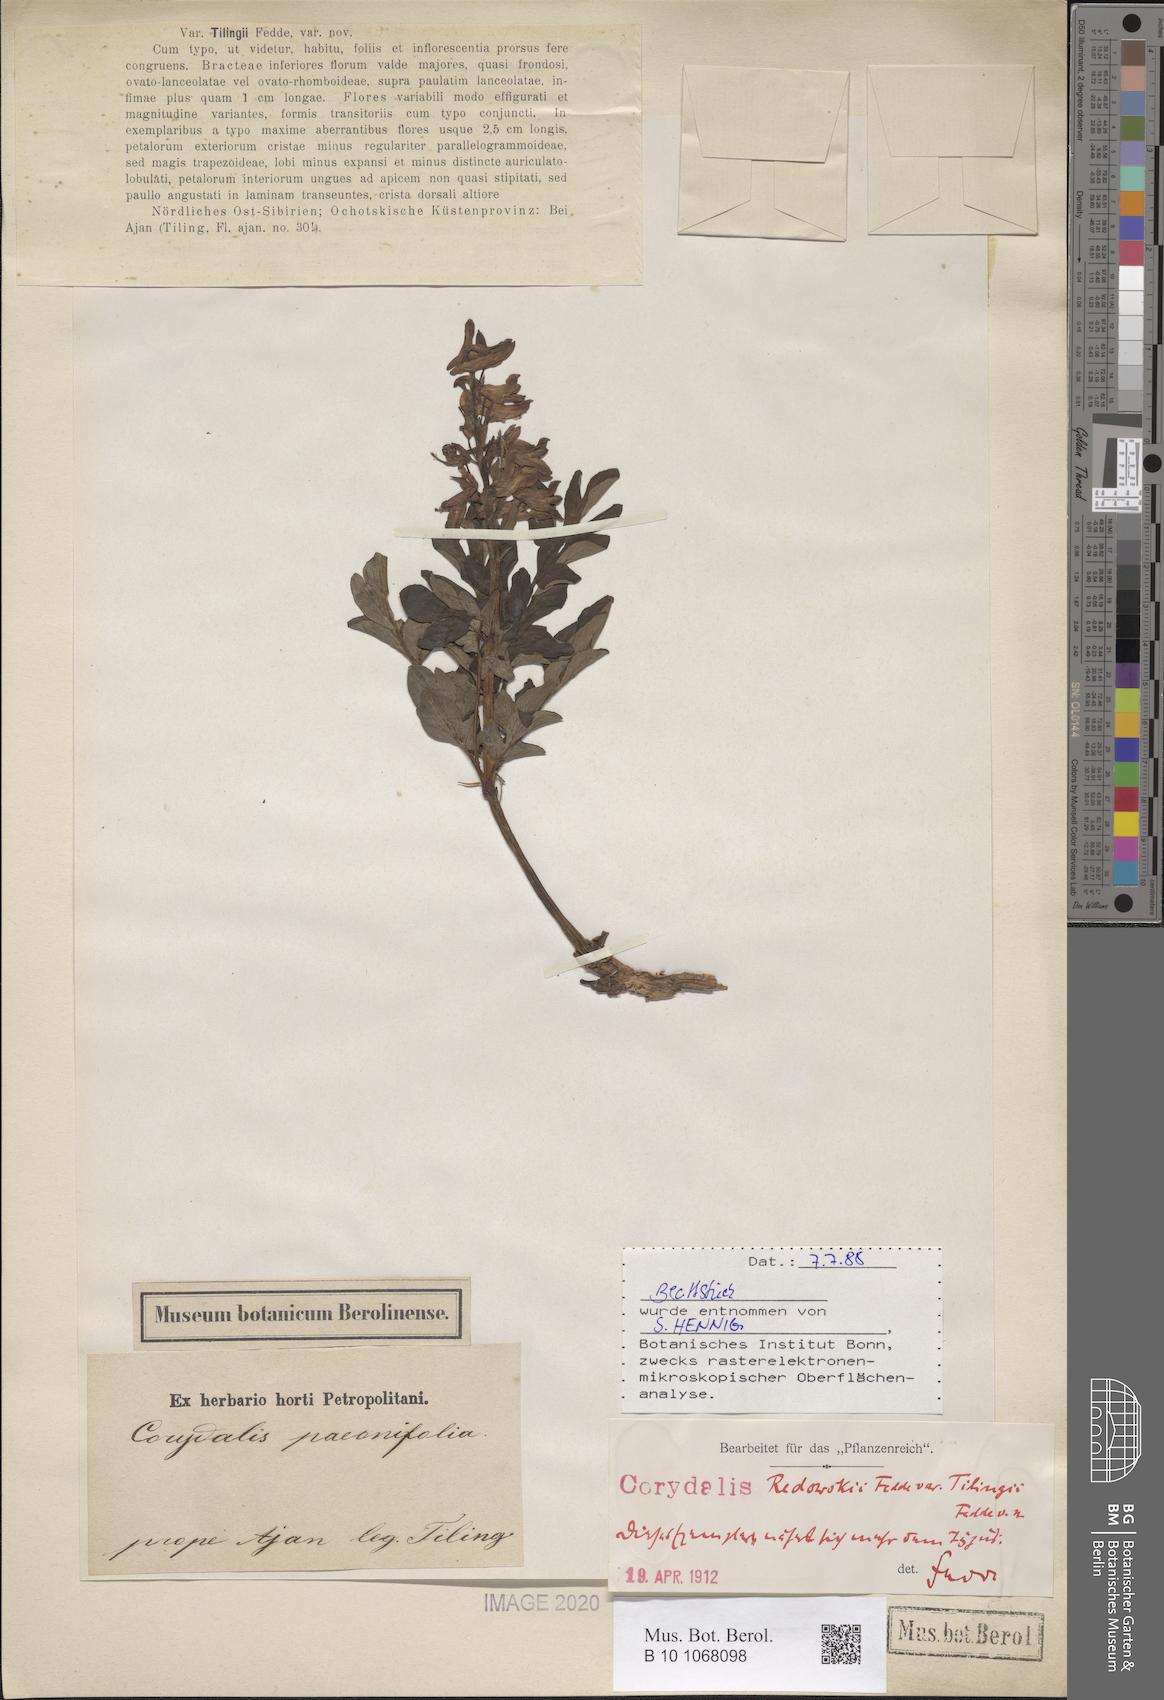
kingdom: Plantae
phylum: Tracheophyta
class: Magnoliopsida
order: Ranunculales
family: Papaveraceae
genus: Corydalis
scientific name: Corydalis paeoniifolia
